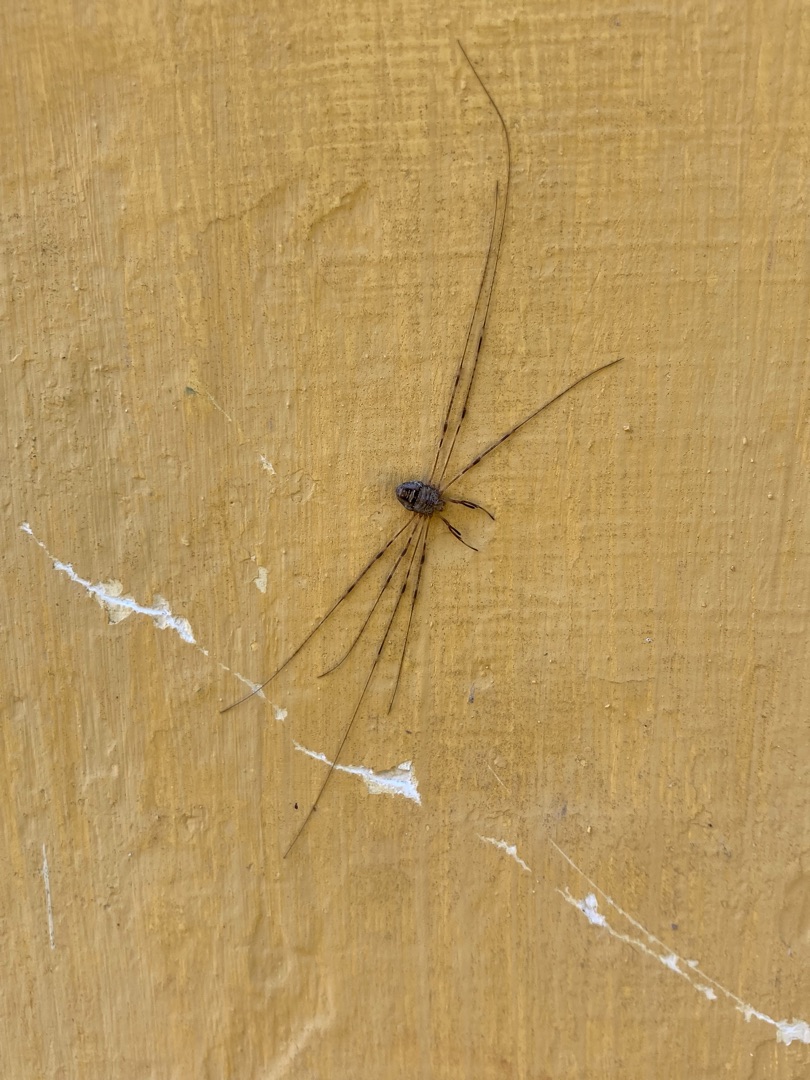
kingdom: Animalia
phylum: Arthropoda
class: Arachnida
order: Opiliones
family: Phalangiidae
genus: Dicranopalpus
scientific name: Dicranopalpus ramosus
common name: Gaffelmejer
